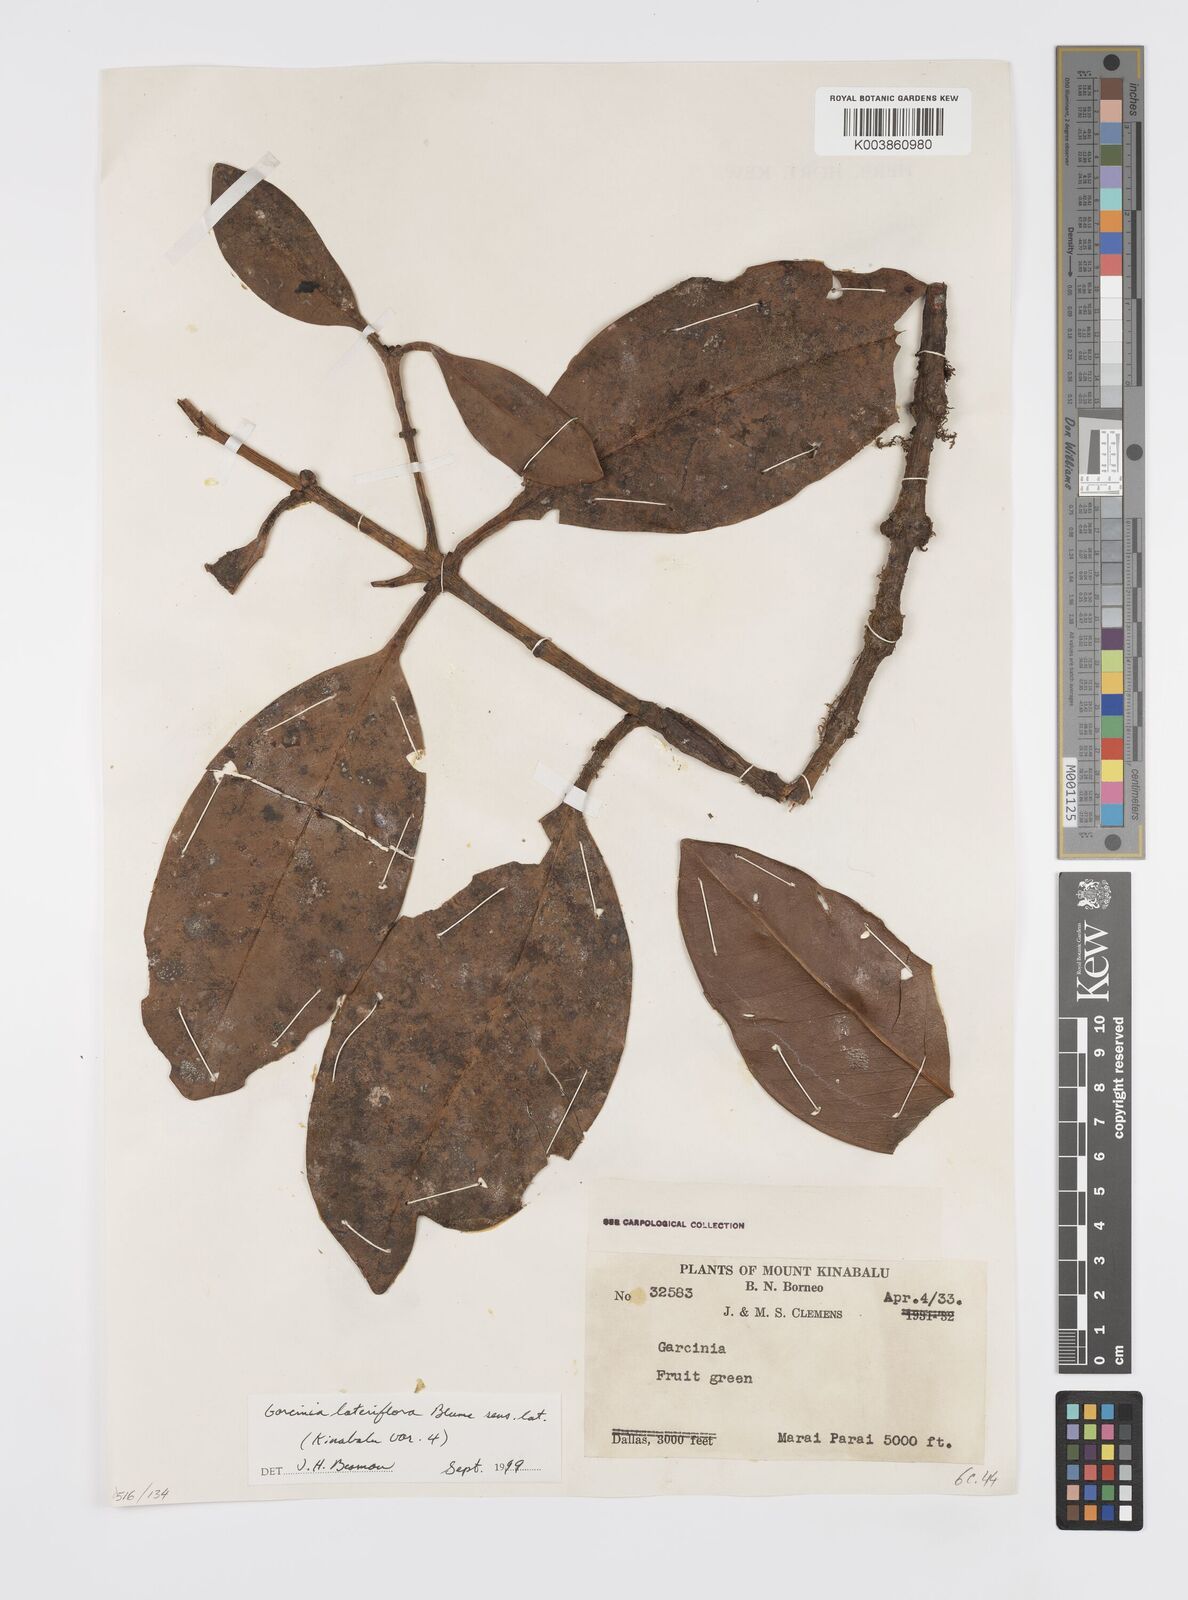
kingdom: Plantae
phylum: Tracheophyta
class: Magnoliopsida
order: Malpighiales
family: Clusiaceae
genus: Garcinia
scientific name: Garcinia lateriflora
